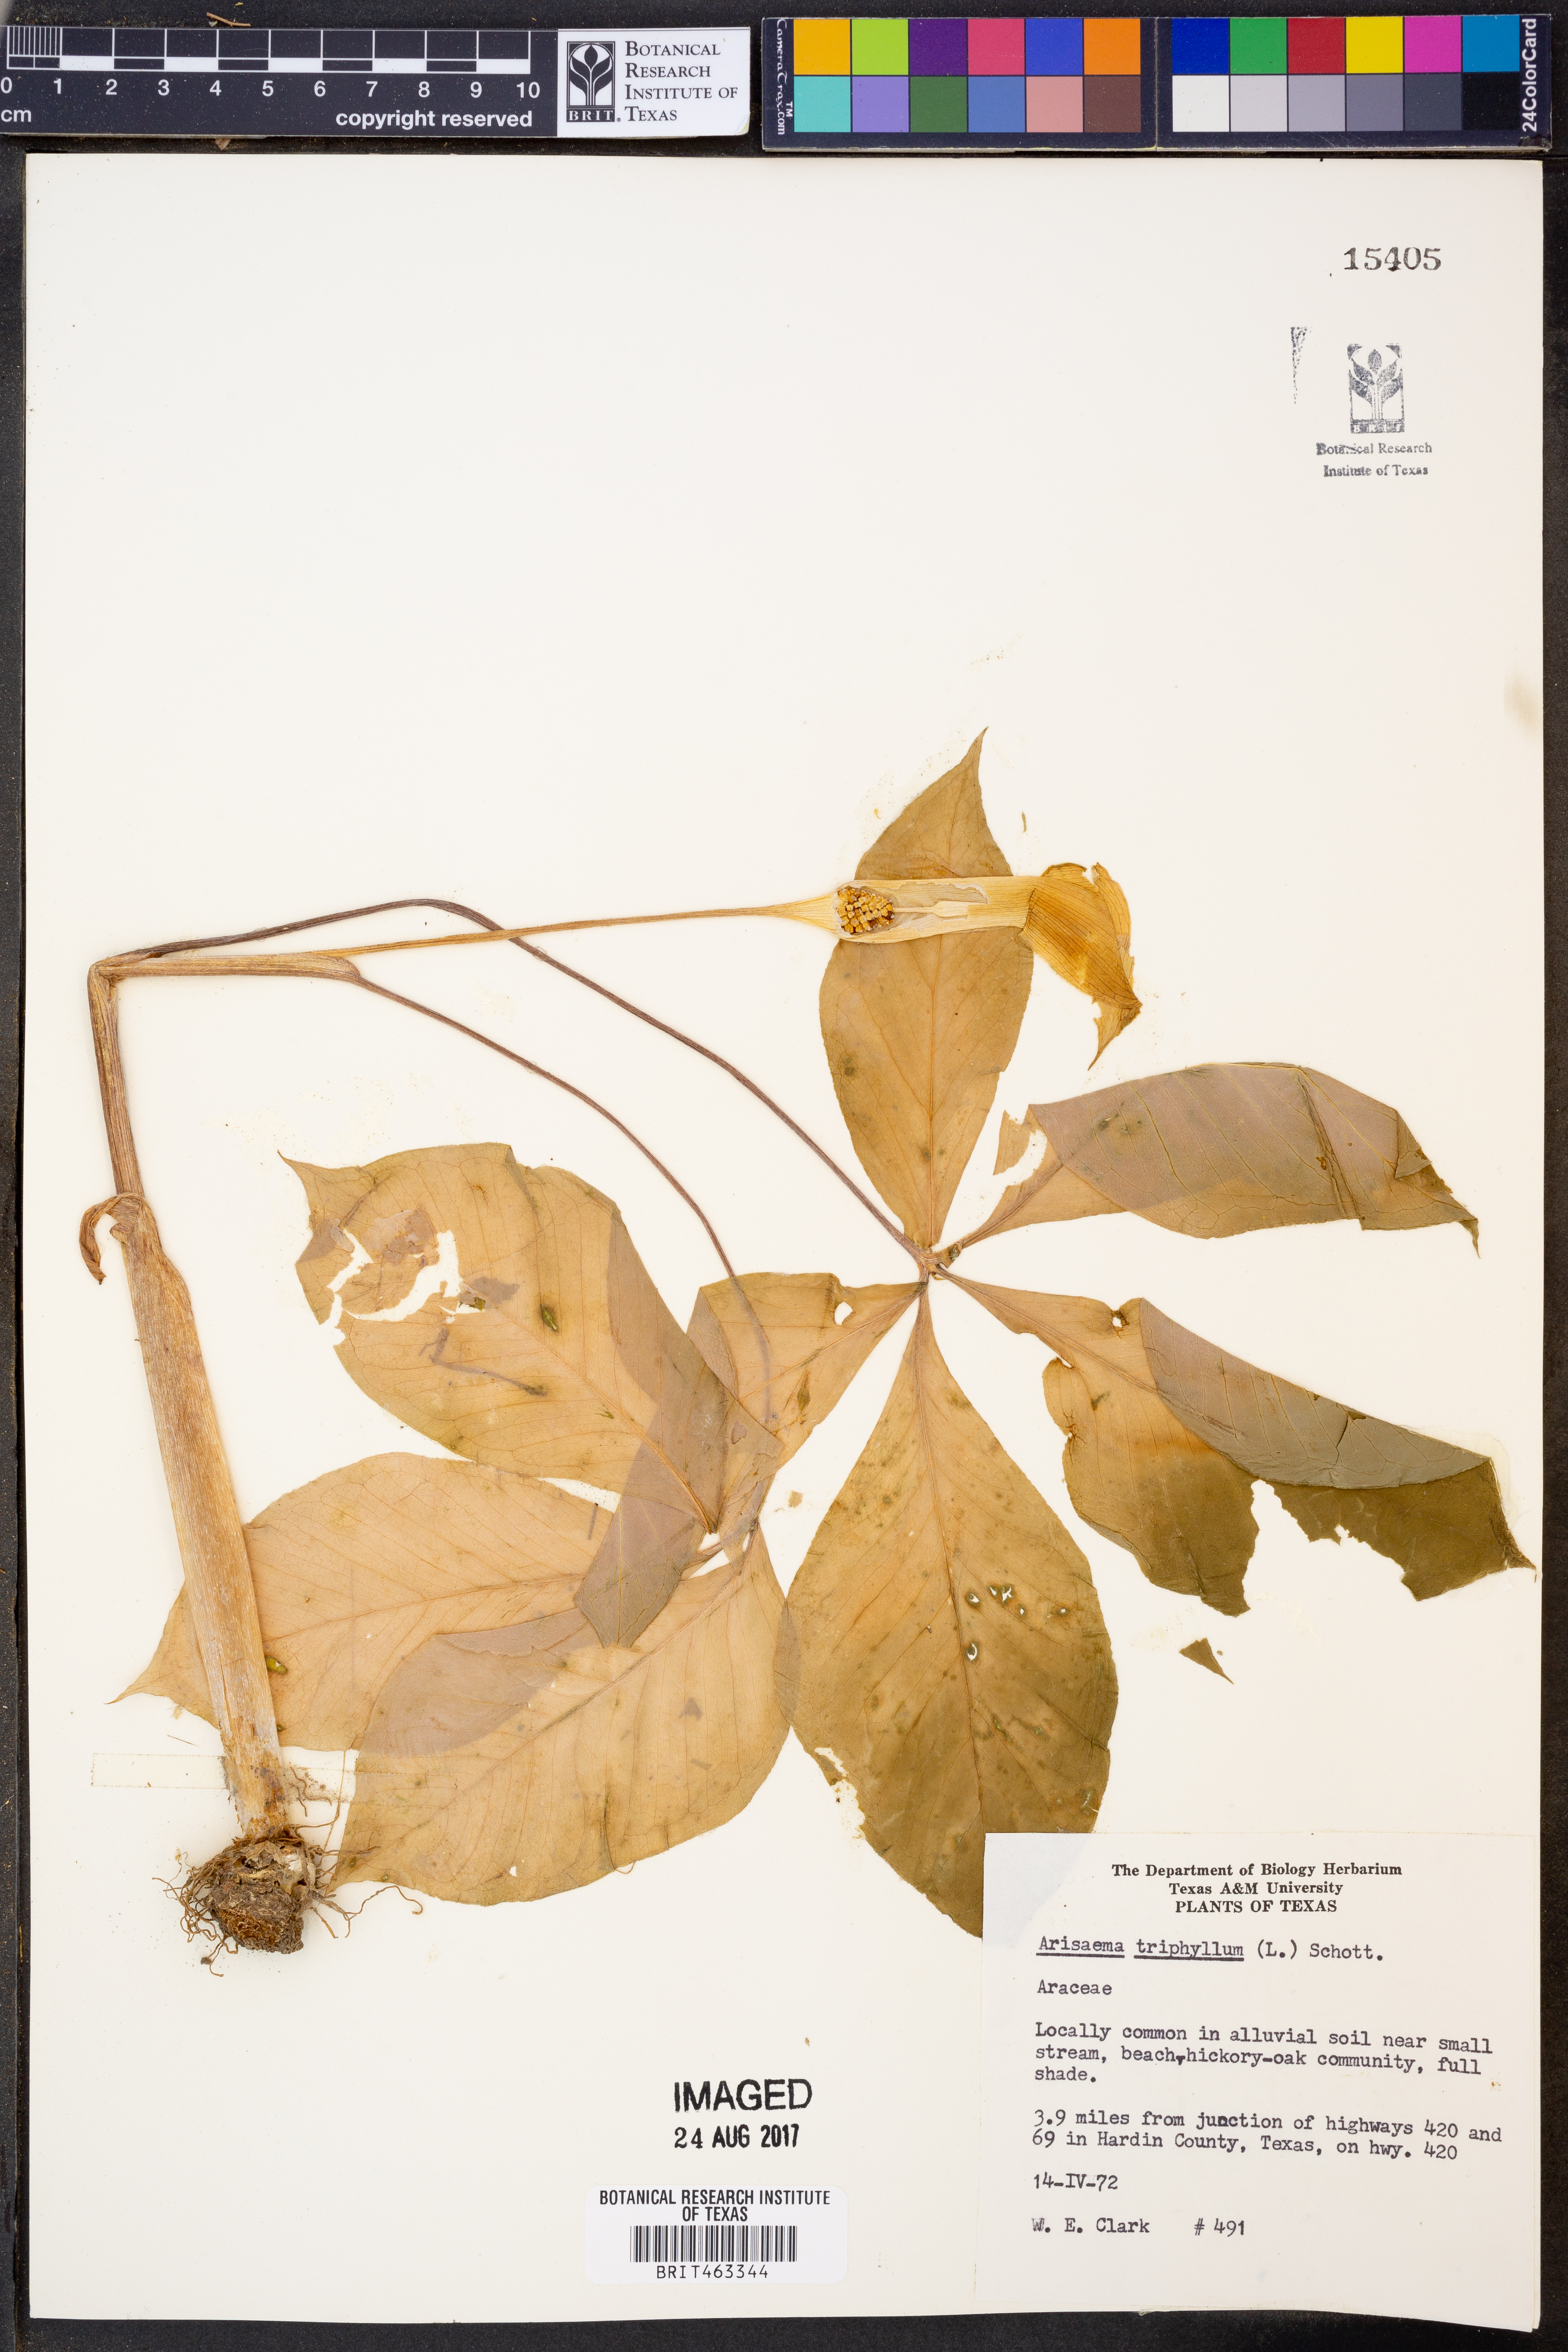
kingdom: Plantae
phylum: Tracheophyta
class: Liliopsida
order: Alismatales
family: Araceae
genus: Arisaema
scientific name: Arisaema triphyllum
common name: Jack-in-the-pulpit
